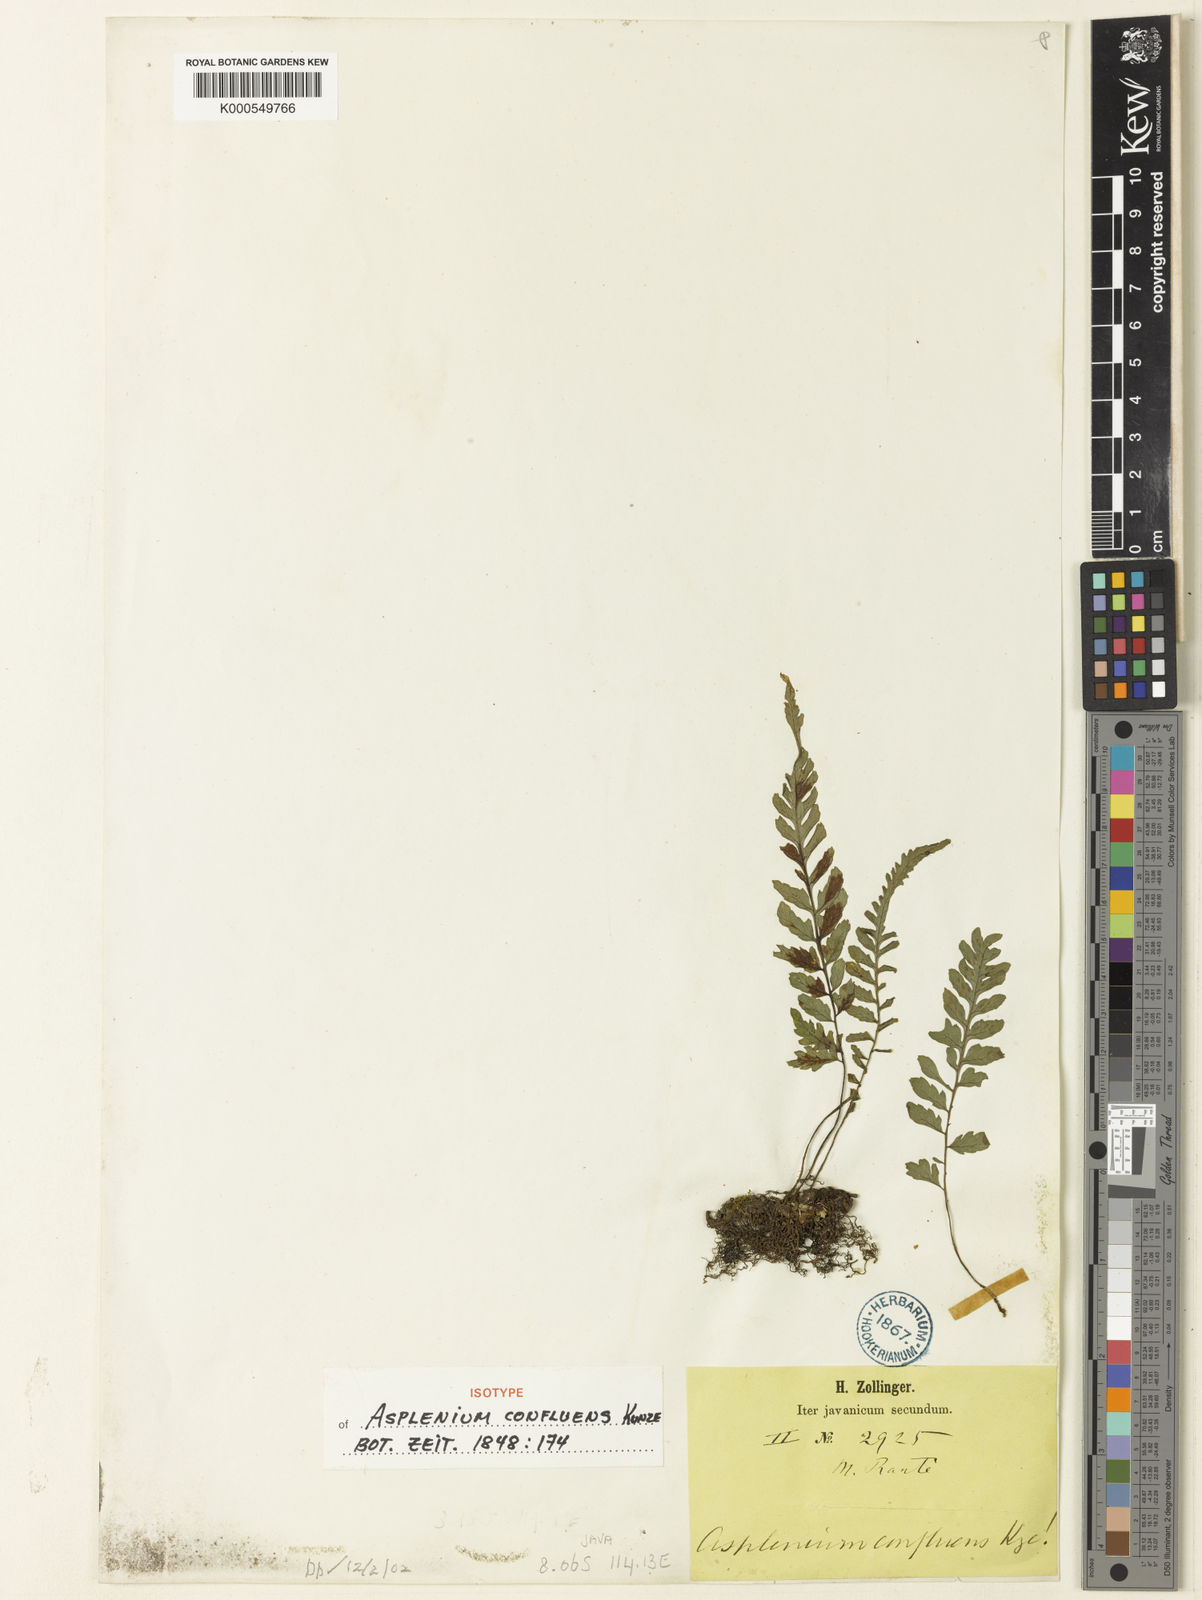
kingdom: Plantae
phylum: Tracheophyta
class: Polypodiopsida
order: Polypodiales
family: Athyriaceae
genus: Deparia
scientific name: Deparia
